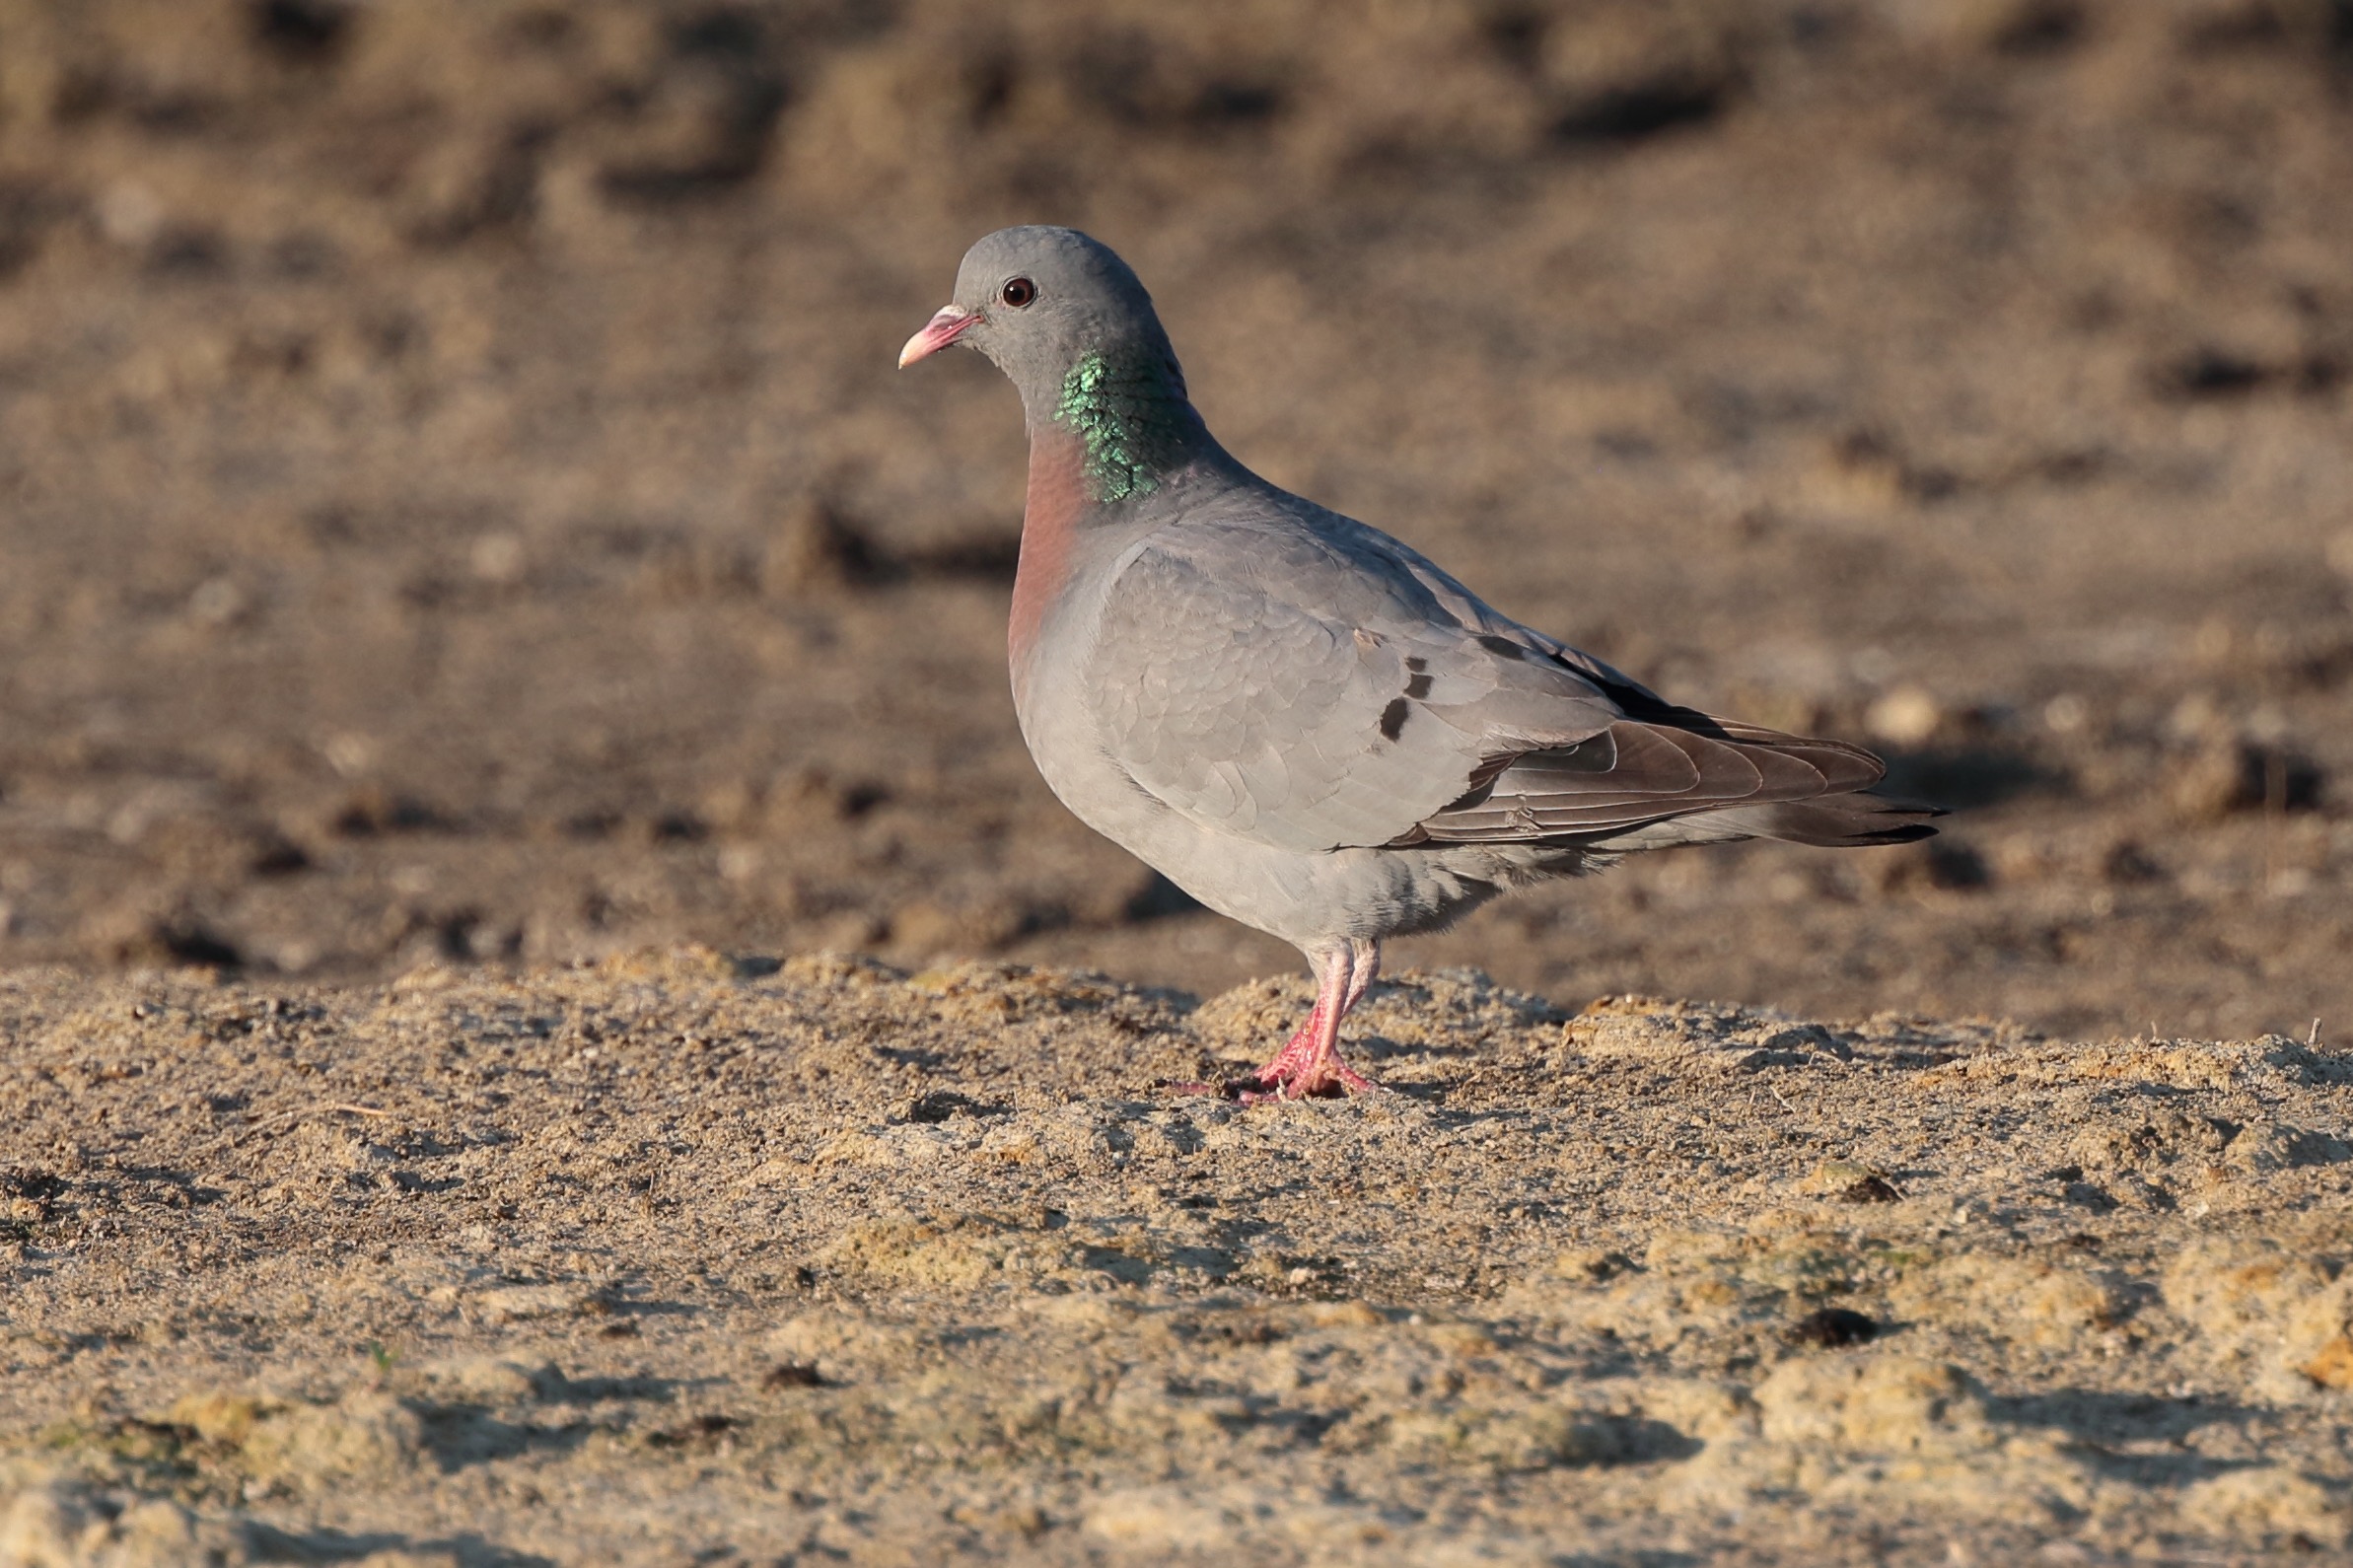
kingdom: Animalia
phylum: Chordata
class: Aves
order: Columbiformes
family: Columbidae
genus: Columba
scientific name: Columba oenas
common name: Huldue
